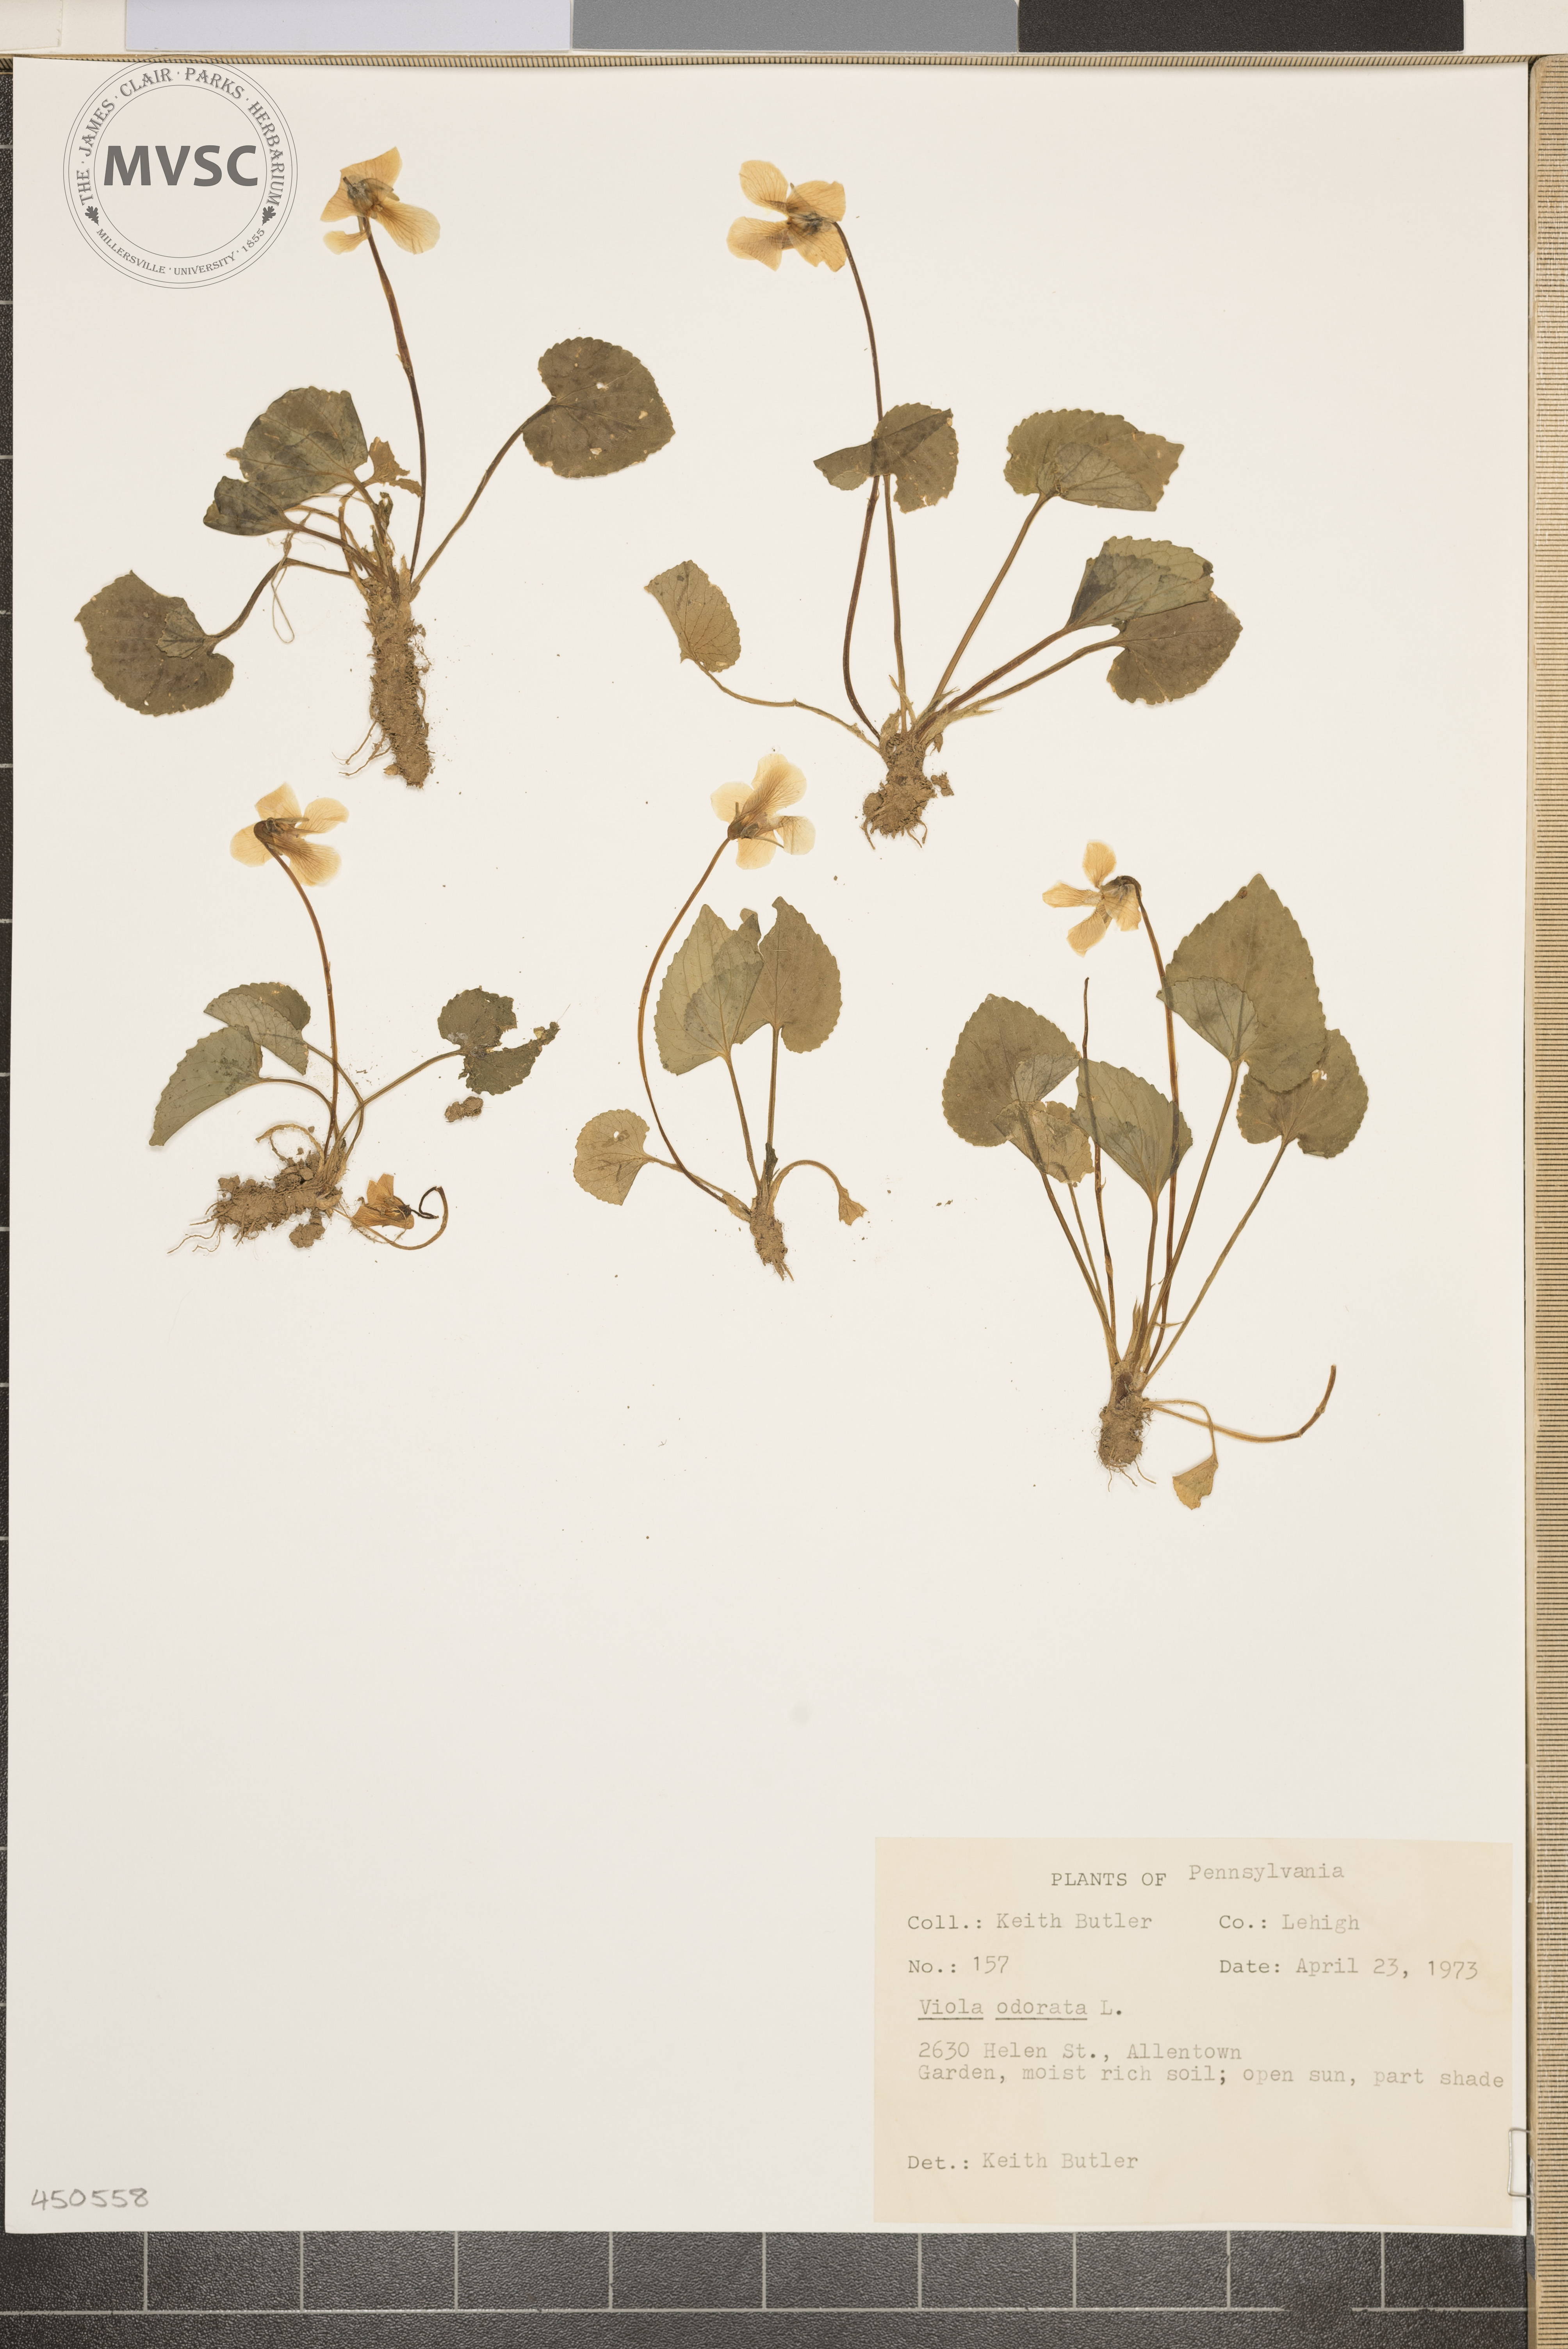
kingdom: Plantae
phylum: Tracheophyta
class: Magnoliopsida
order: Malpighiales
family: Violaceae
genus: Viola
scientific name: Viola odorata
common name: Sweet violet
